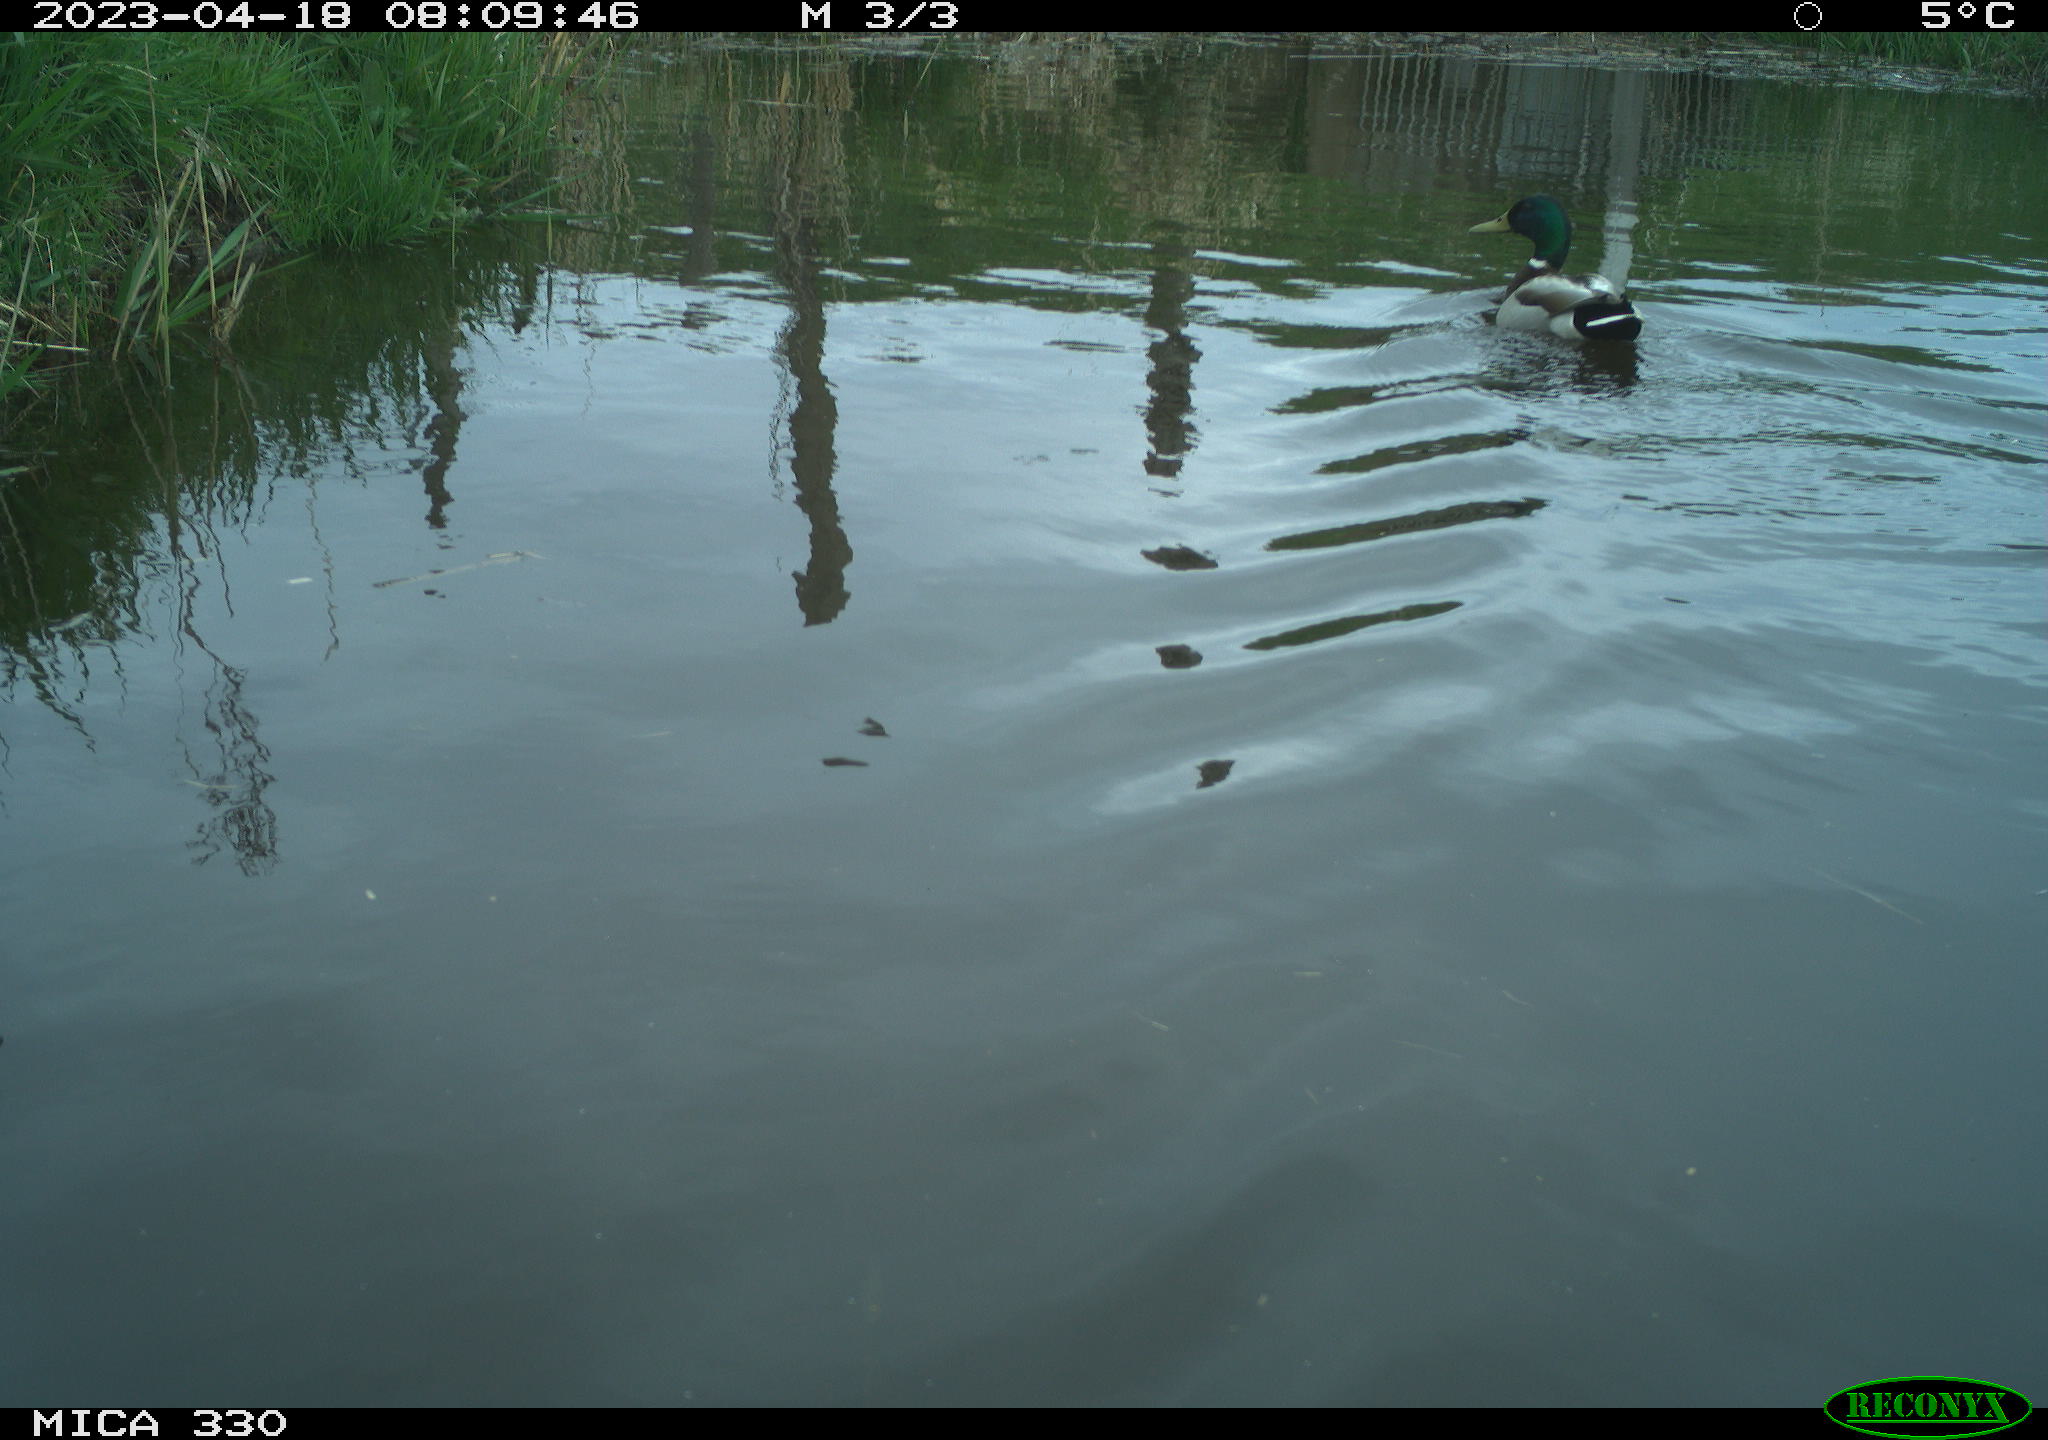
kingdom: Animalia
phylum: Chordata
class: Aves
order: Anseriformes
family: Anatidae
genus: Anas
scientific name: Anas
